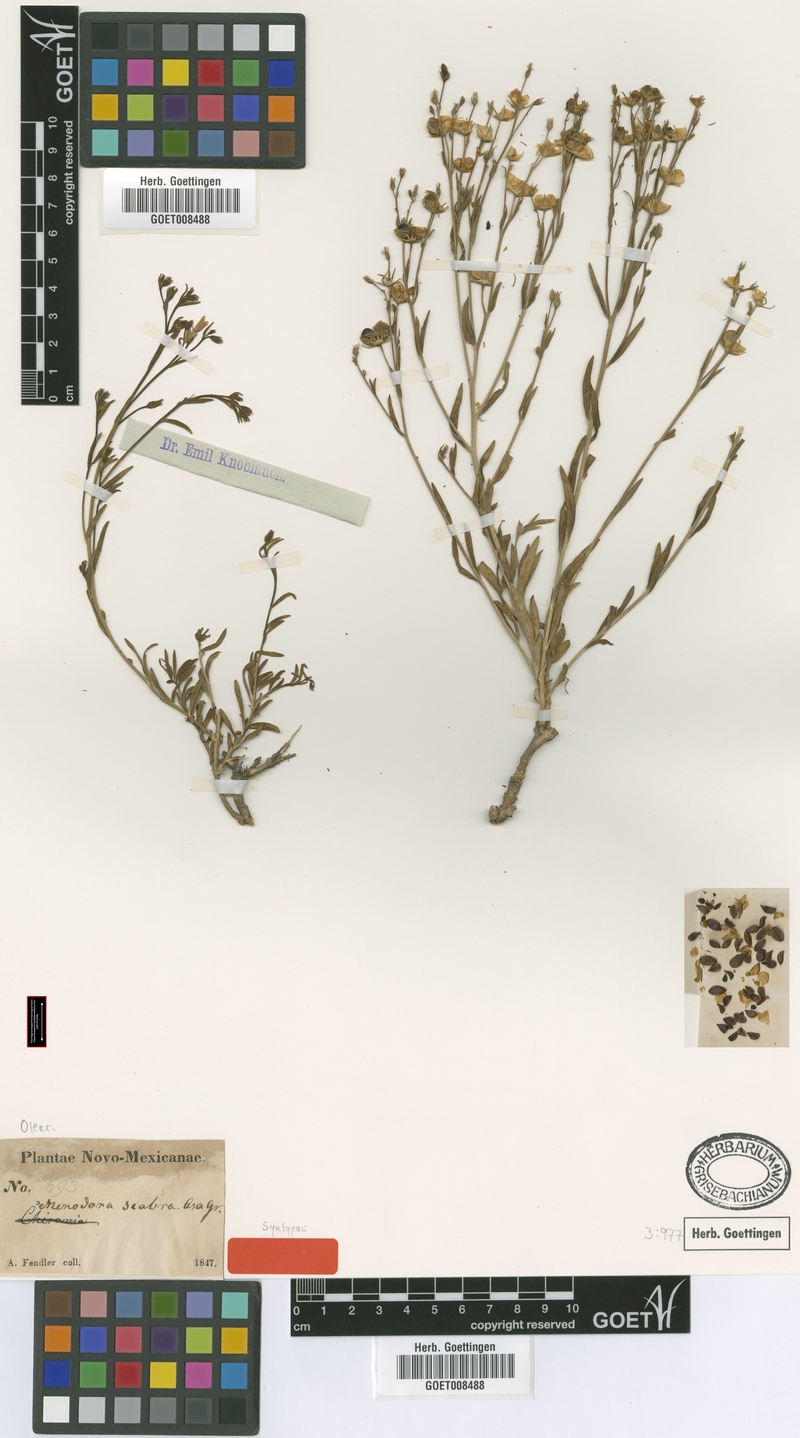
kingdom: Plantae
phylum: Tracheophyta
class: Magnoliopsida
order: Lamiales
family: Oleaceae
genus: Menodora
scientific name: Menodora scabra
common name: Rough menodora
